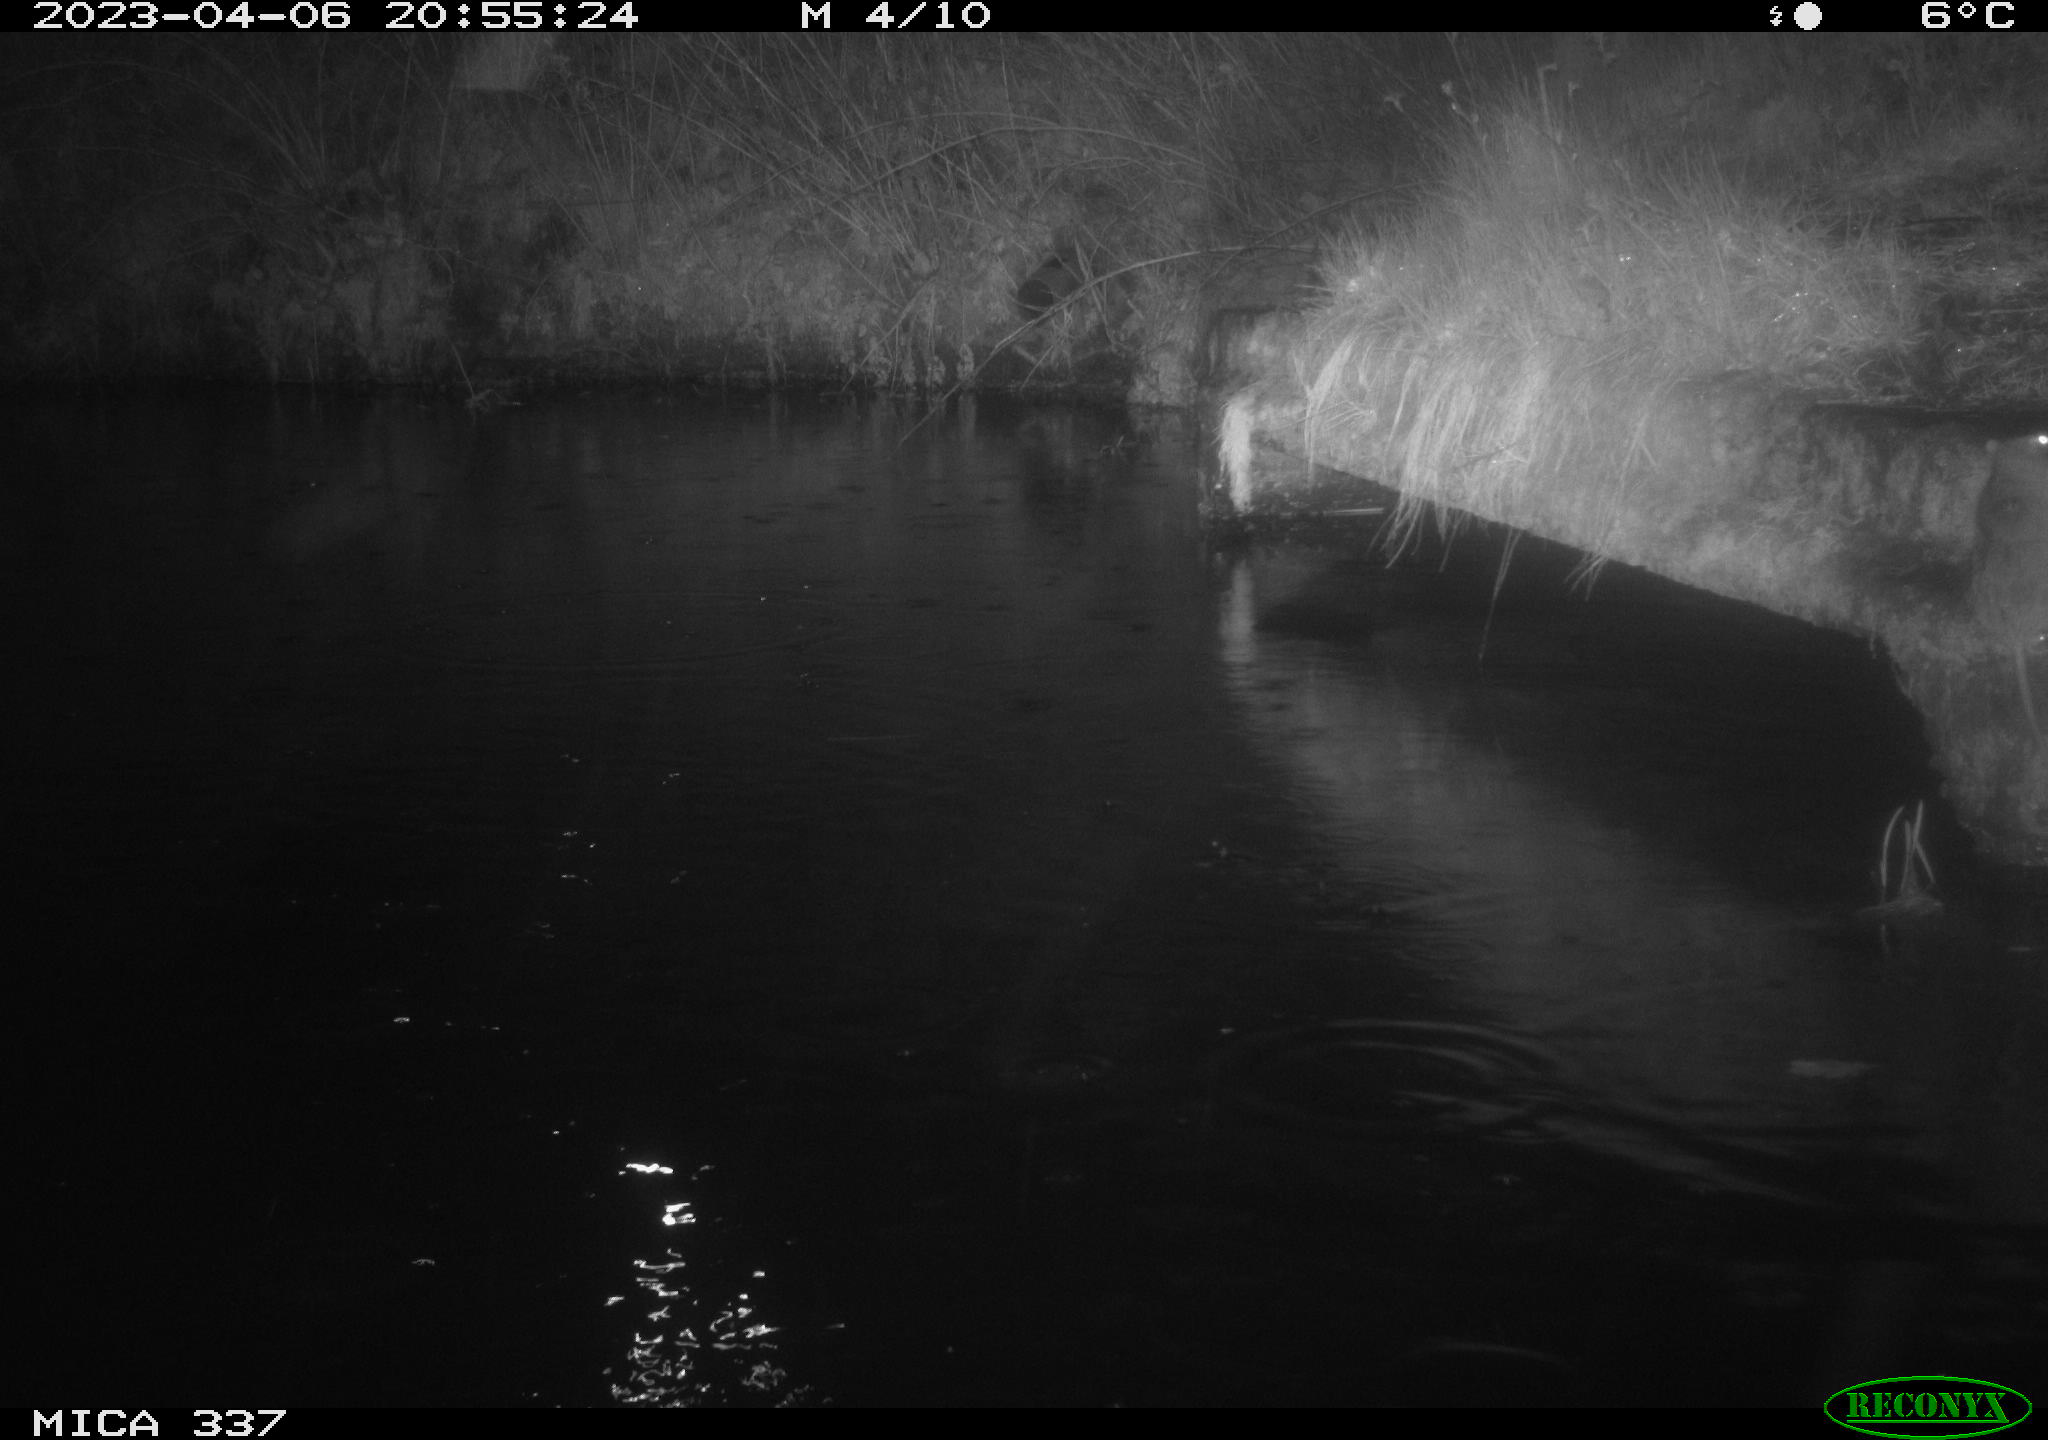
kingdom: Animalia
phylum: Chordata
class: Mammalia
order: Rodentia
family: Muridae
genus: Rattus
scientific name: Rattus norvegicus
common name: Brown rat
